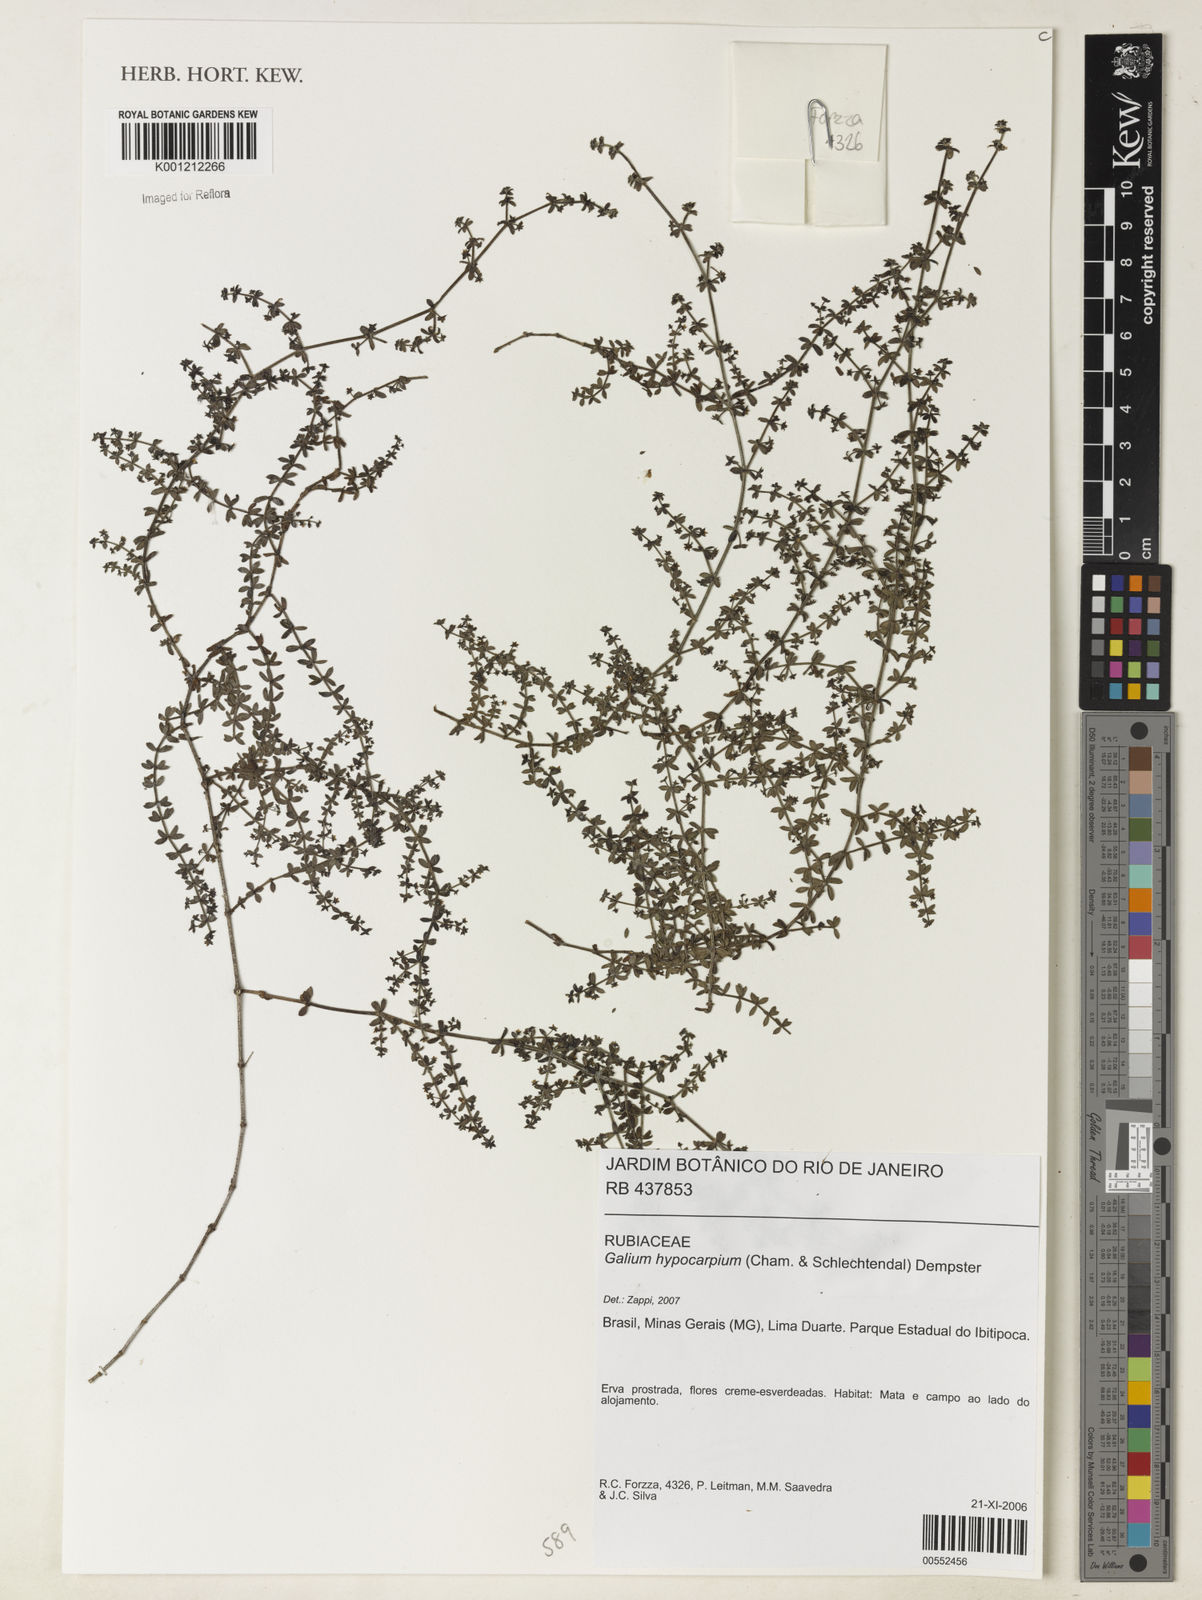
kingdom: Plantae
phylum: Tracheophyta
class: Magnoliopsida
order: Gentianales
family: Rubiaceae
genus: Galium
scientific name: Galium hypocarpium
